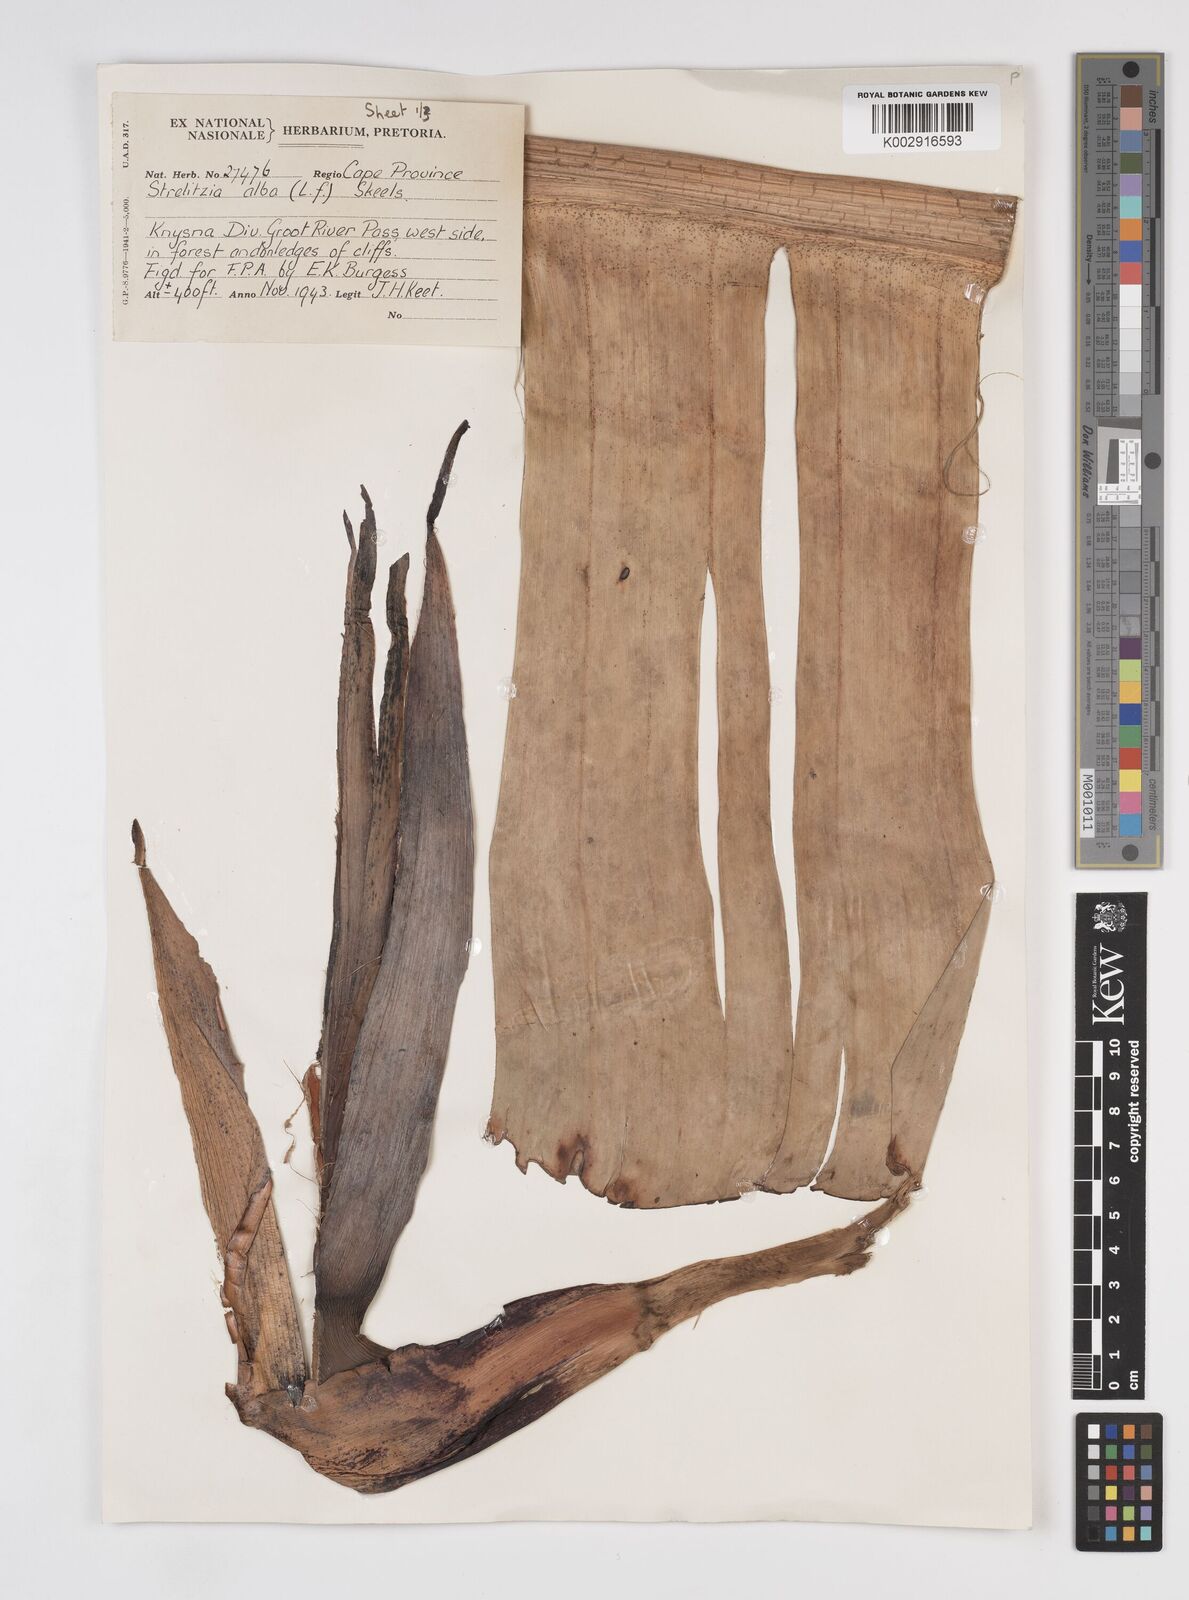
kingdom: Plantae
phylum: Tracheophyta
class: Liliopsida
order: Zingiberales
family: Strelitziaceae
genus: Strelitzia
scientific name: Strelitzia
